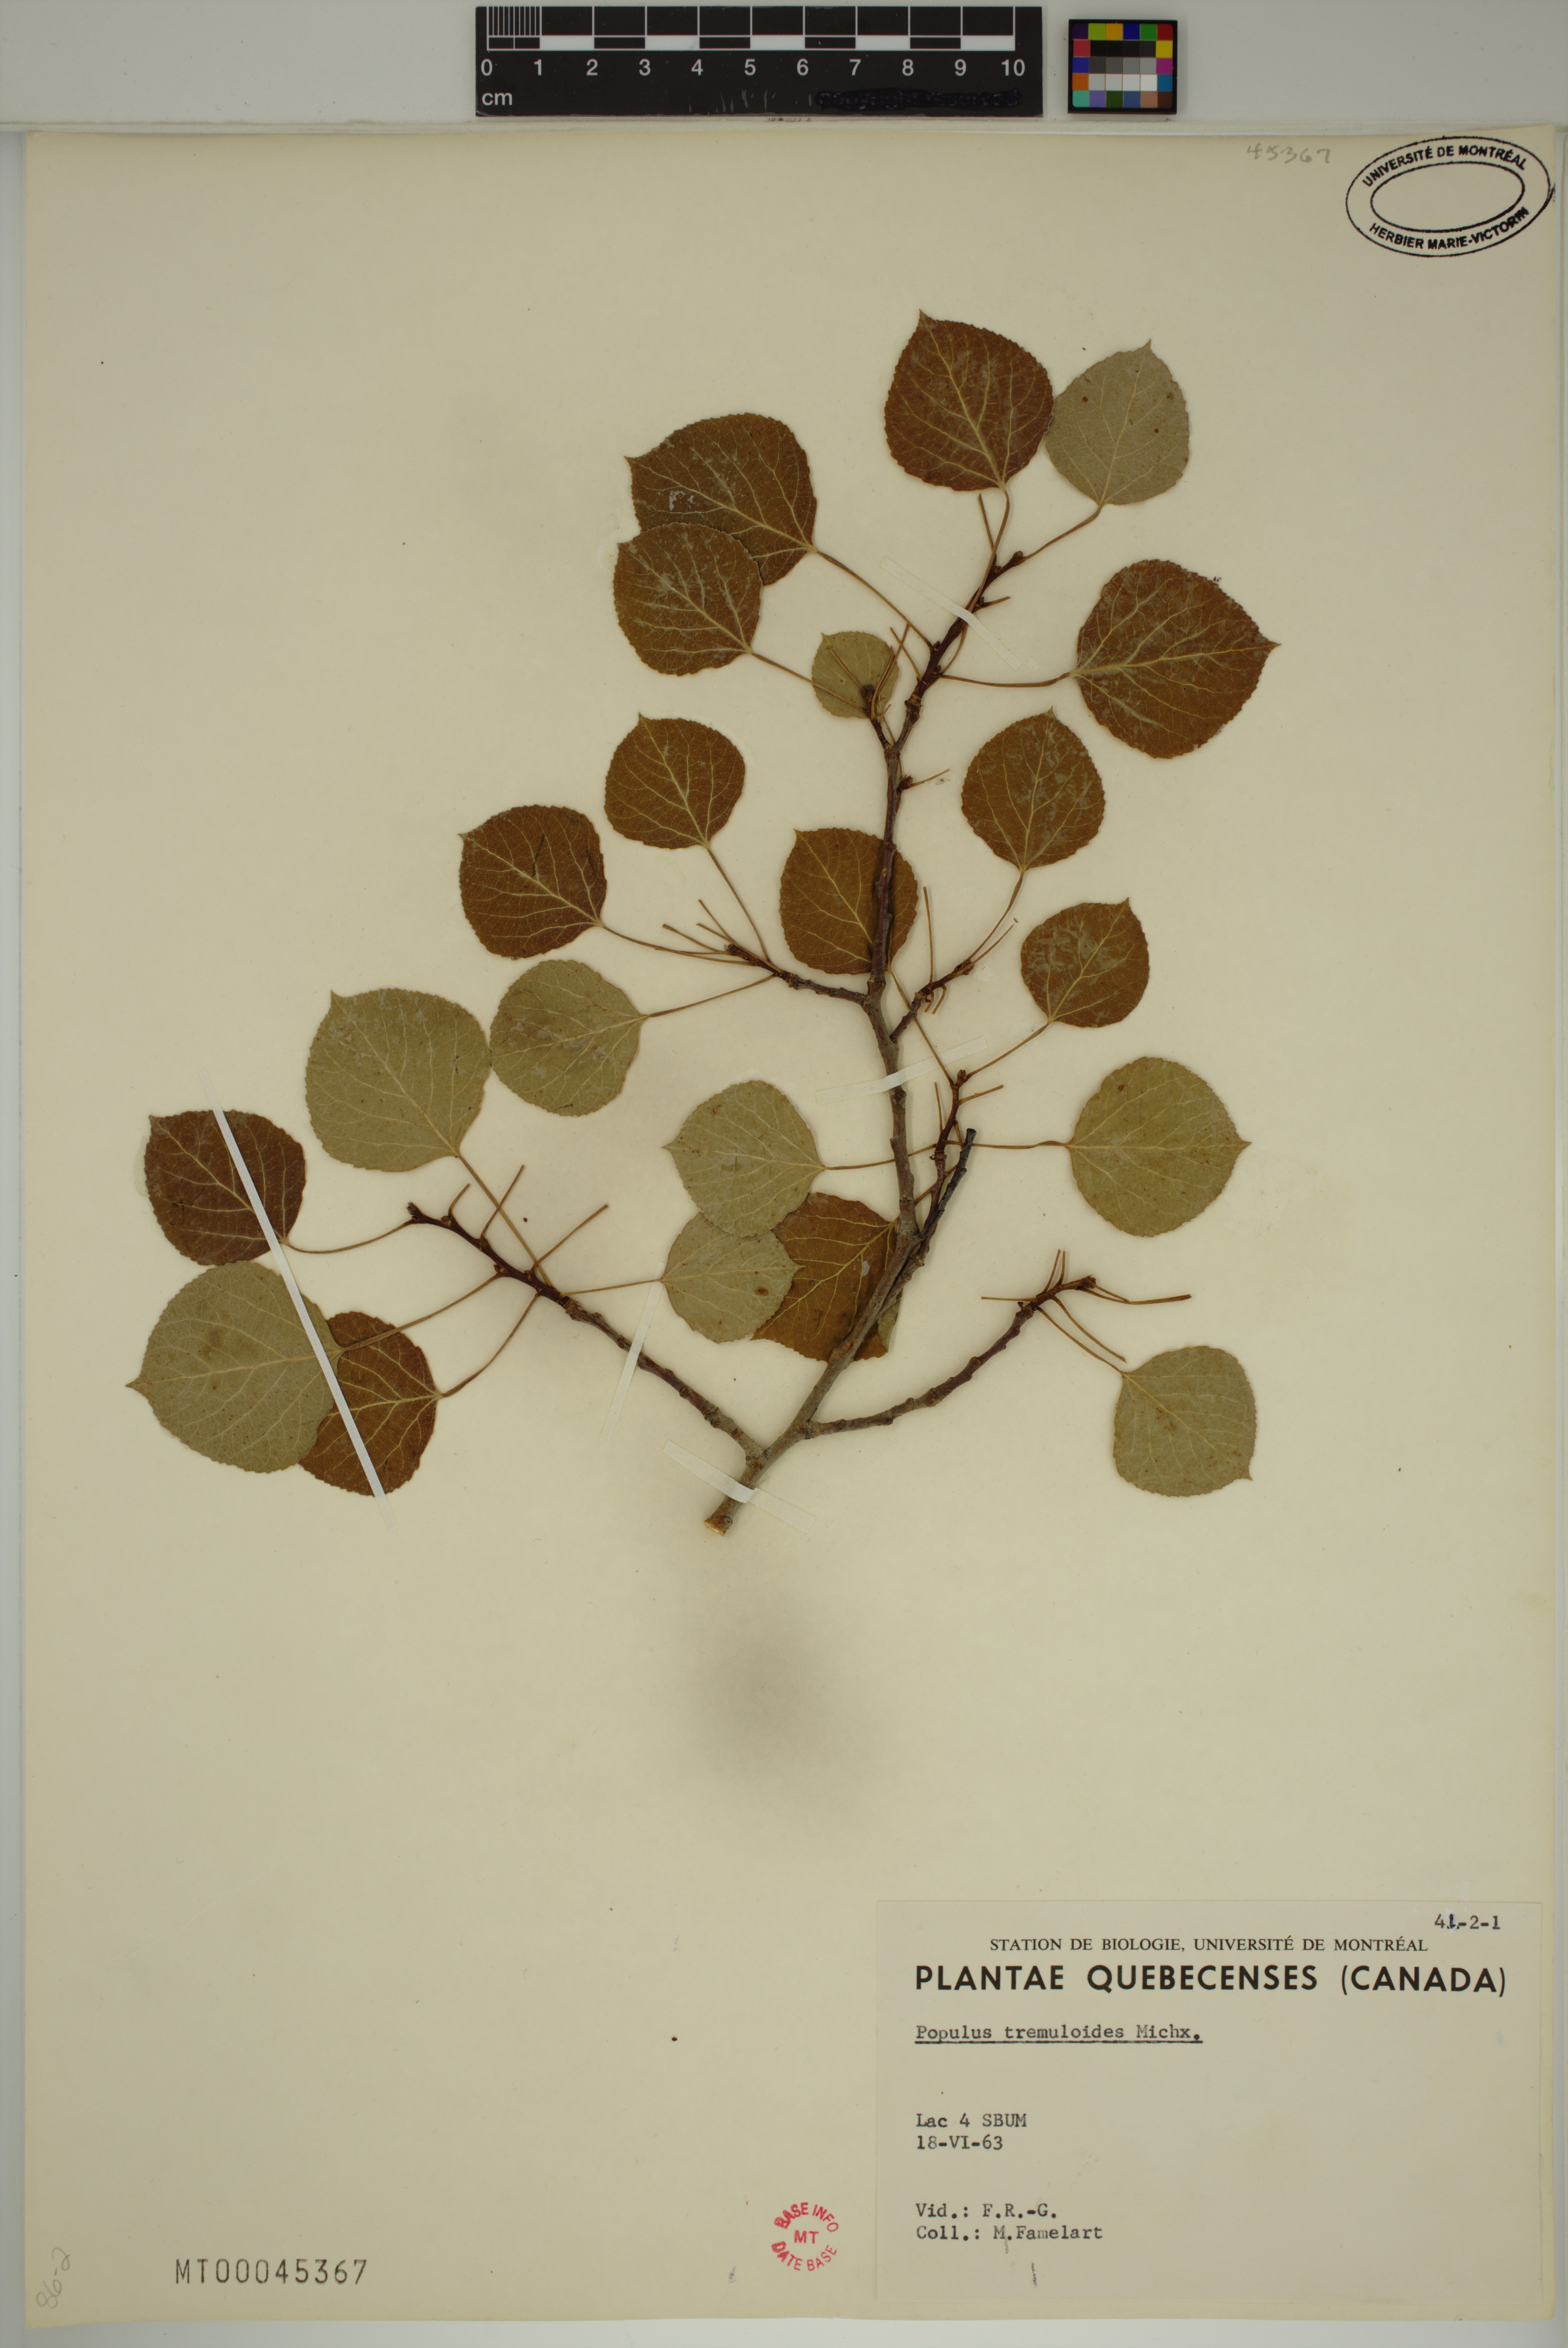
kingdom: Plantae
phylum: Tracheophyta
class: Magnoliopsida
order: Malpighiales
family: Salicaceae
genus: Populus
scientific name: Populus tremuloides
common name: Quaking aspen
